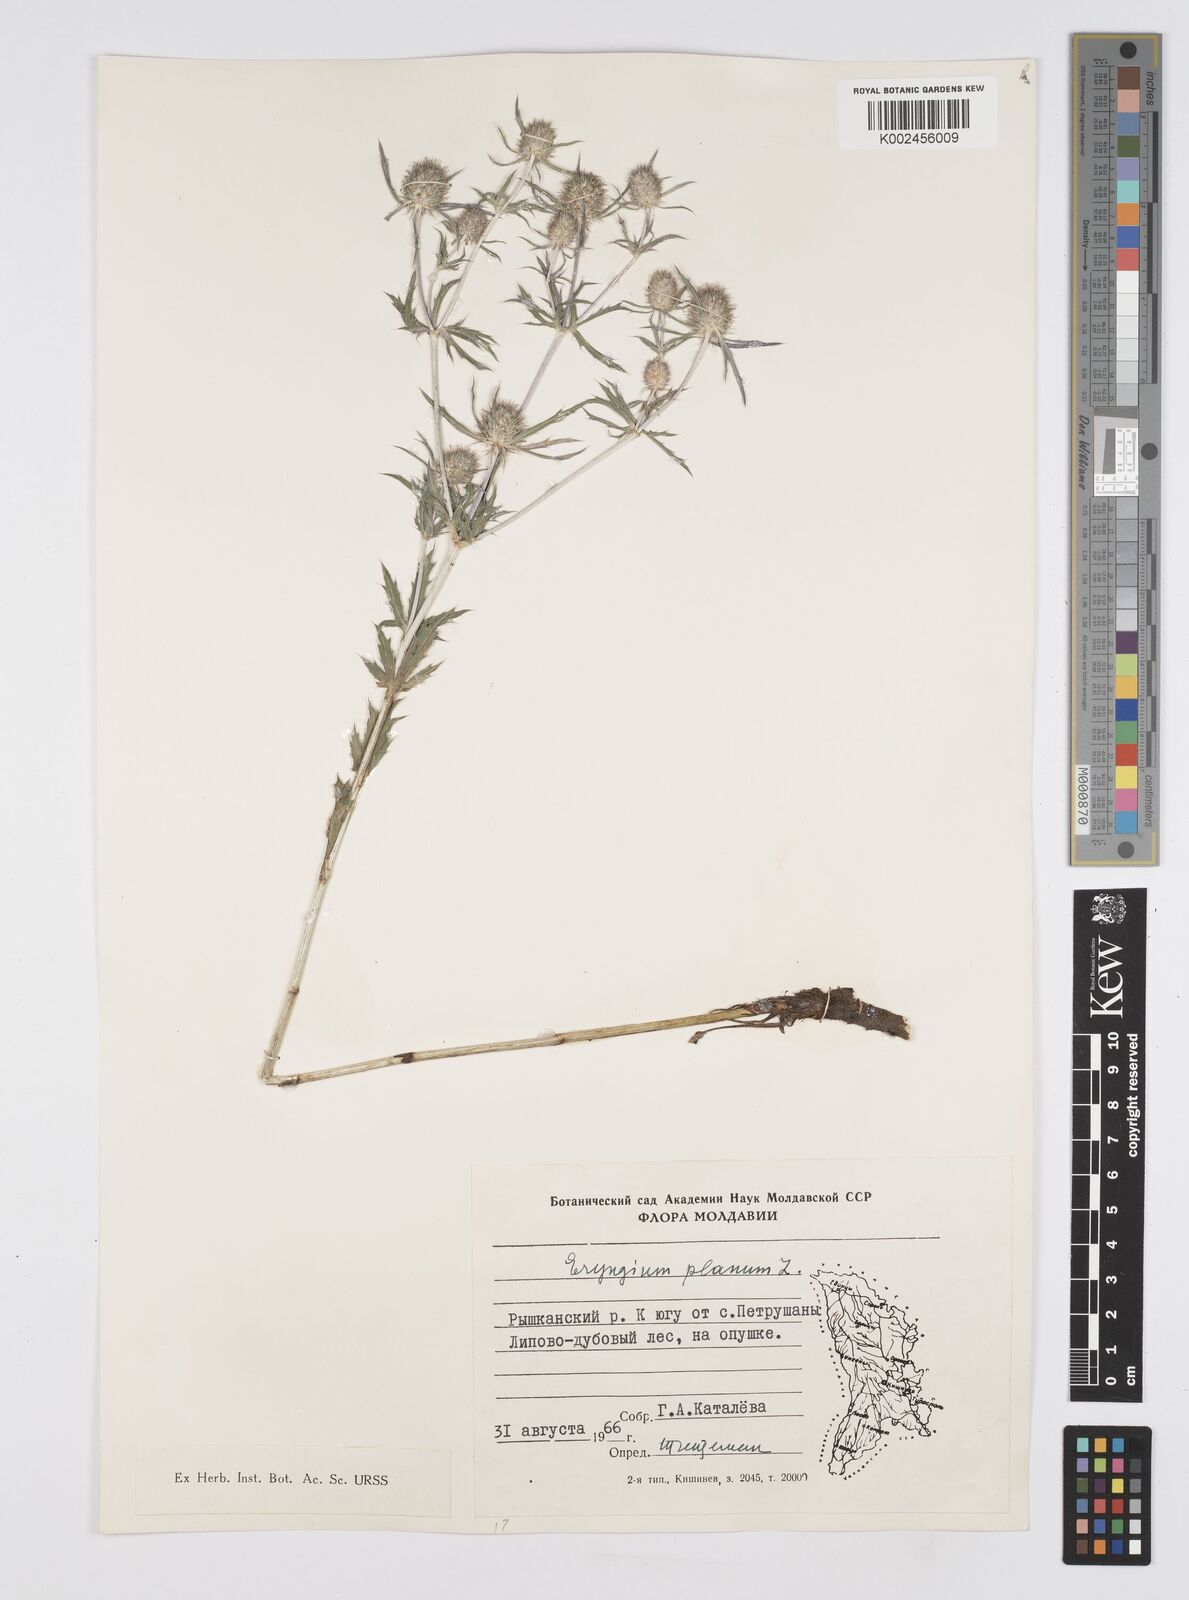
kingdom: Plantae
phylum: Tracheophyta
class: Magnoliopsida
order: Apiales
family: Apiaceae
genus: Eryngium
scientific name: Eryngium planum
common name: Blue eryngo
